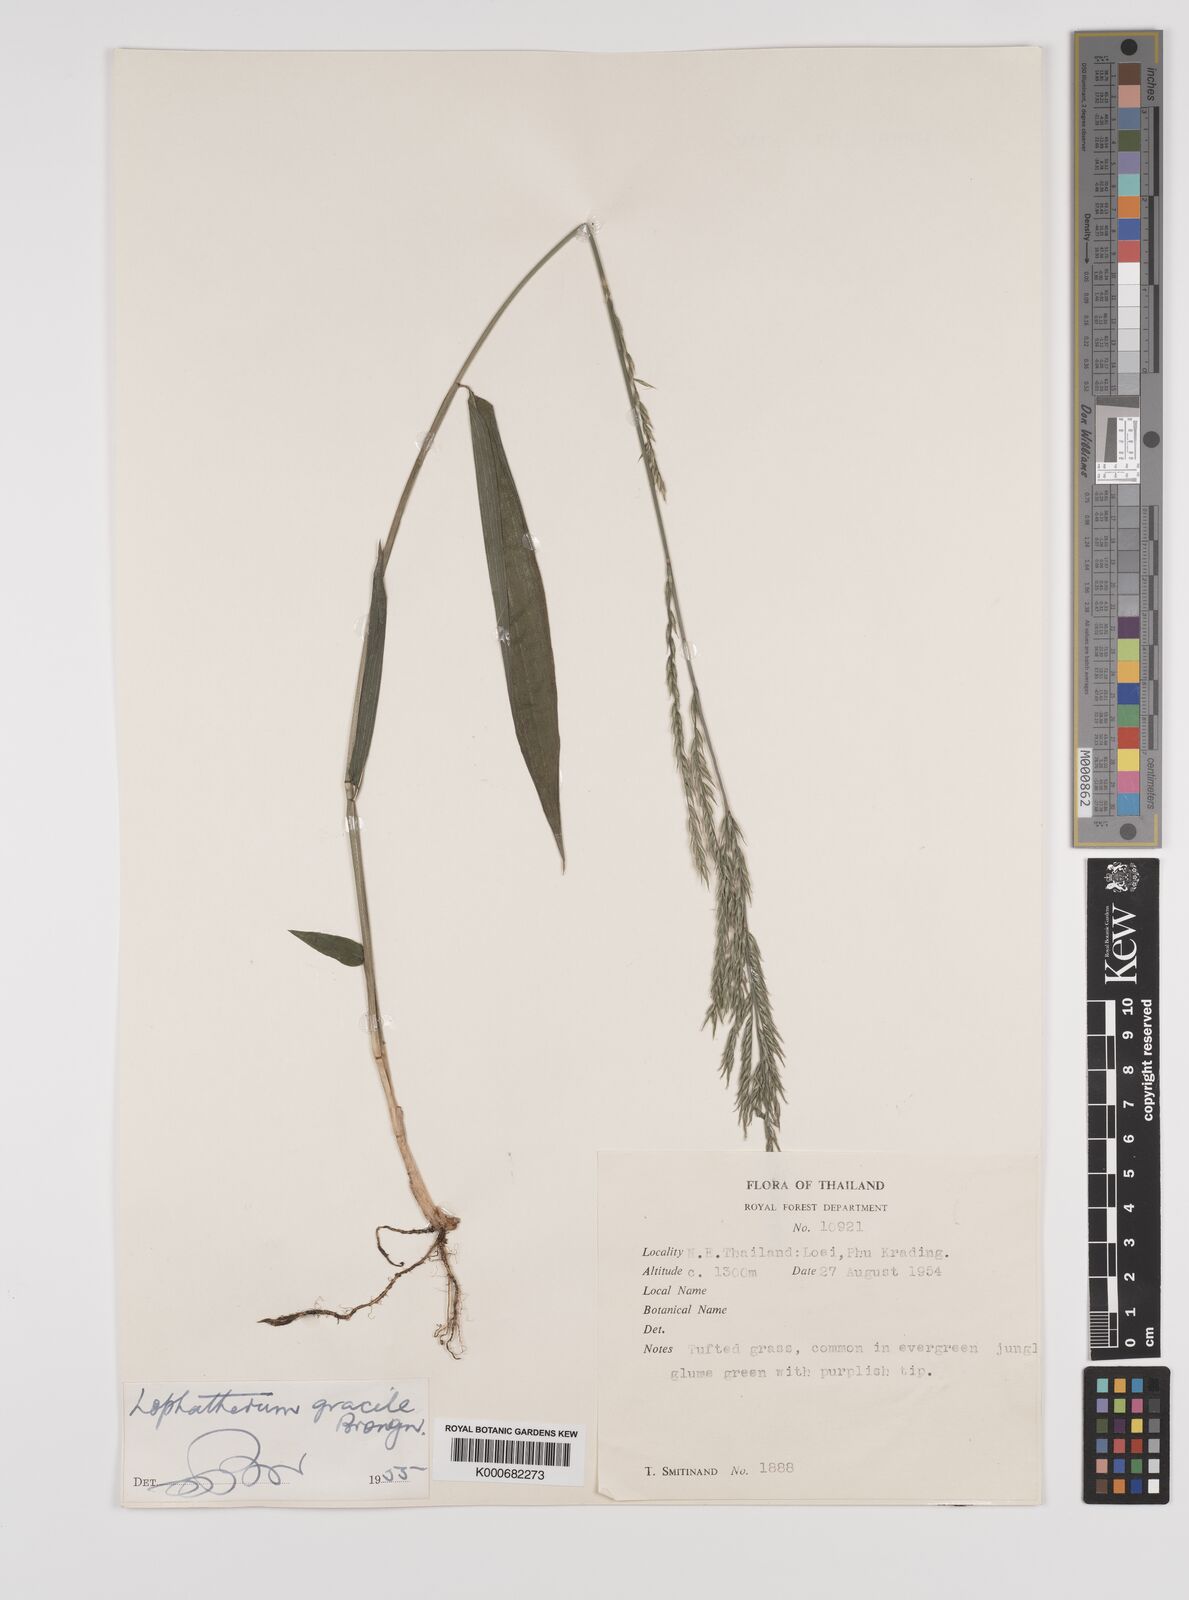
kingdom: Plantae
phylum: Tracheophyta
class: Liliopsida
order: Poales
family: Poaceae
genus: Lophatherum
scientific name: Lophatherum gracile
